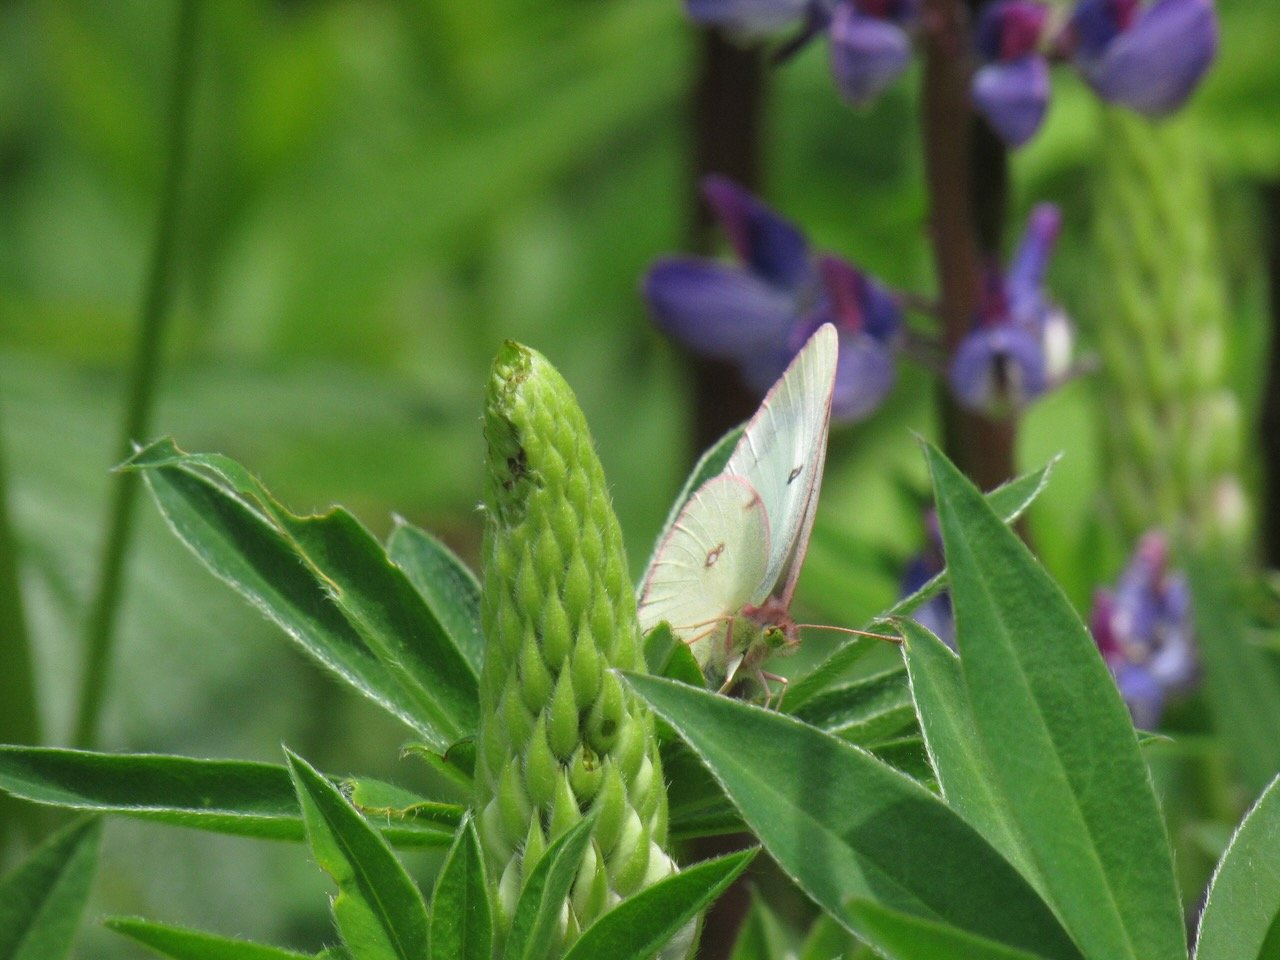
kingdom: Animalia
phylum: Arthropoda
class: Insecta
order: Lepidoptera
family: Pieridae
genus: Colias
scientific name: Colias philodice
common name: Clouded Sulphur
